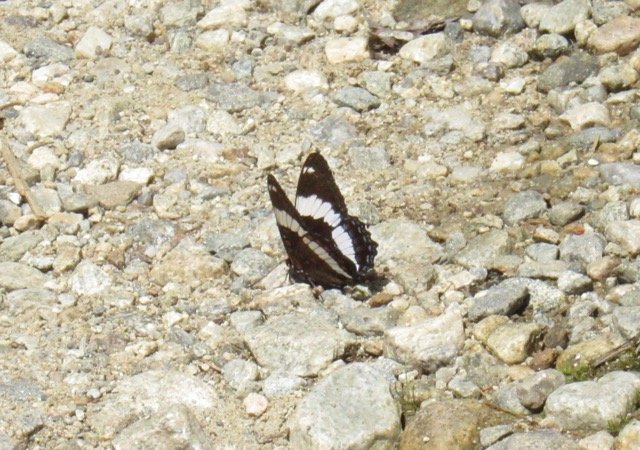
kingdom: Animalia
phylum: Arthropoda
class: Insecta
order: Lepidoptera
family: Nymphalidae
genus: Limenitis
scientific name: Limenitis
